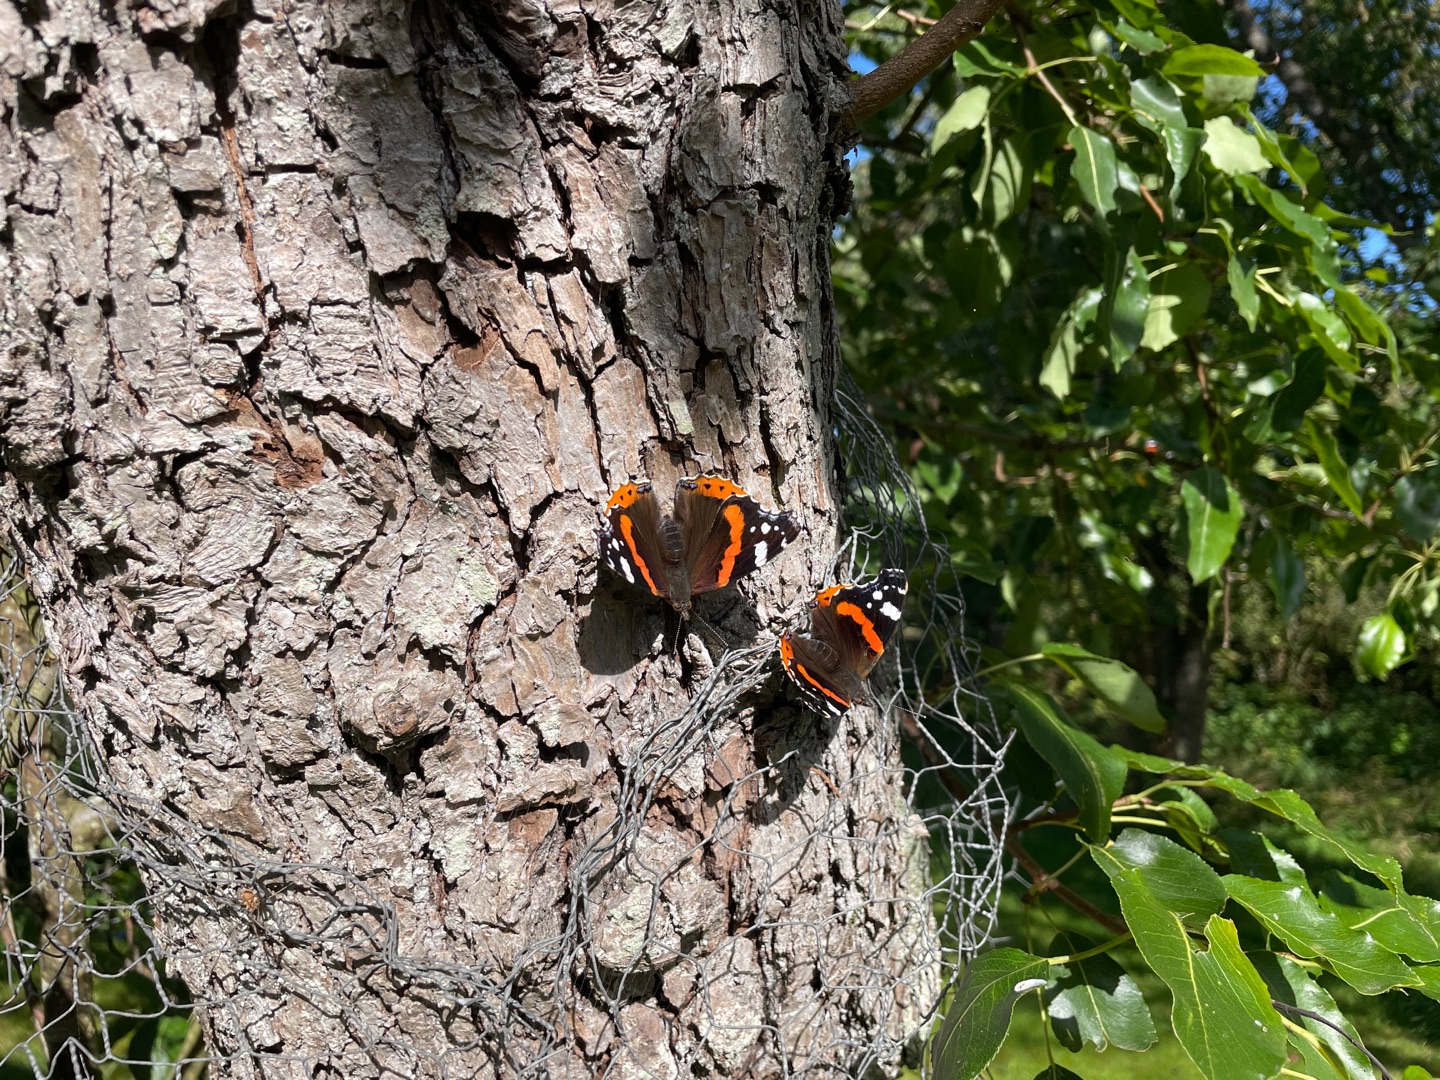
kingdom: Animalia
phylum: Arthropoda
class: Insecta
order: Lepidoptera
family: Nymphalidae
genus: Vanessa
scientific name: Vanessa atalanta
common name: Admiral
